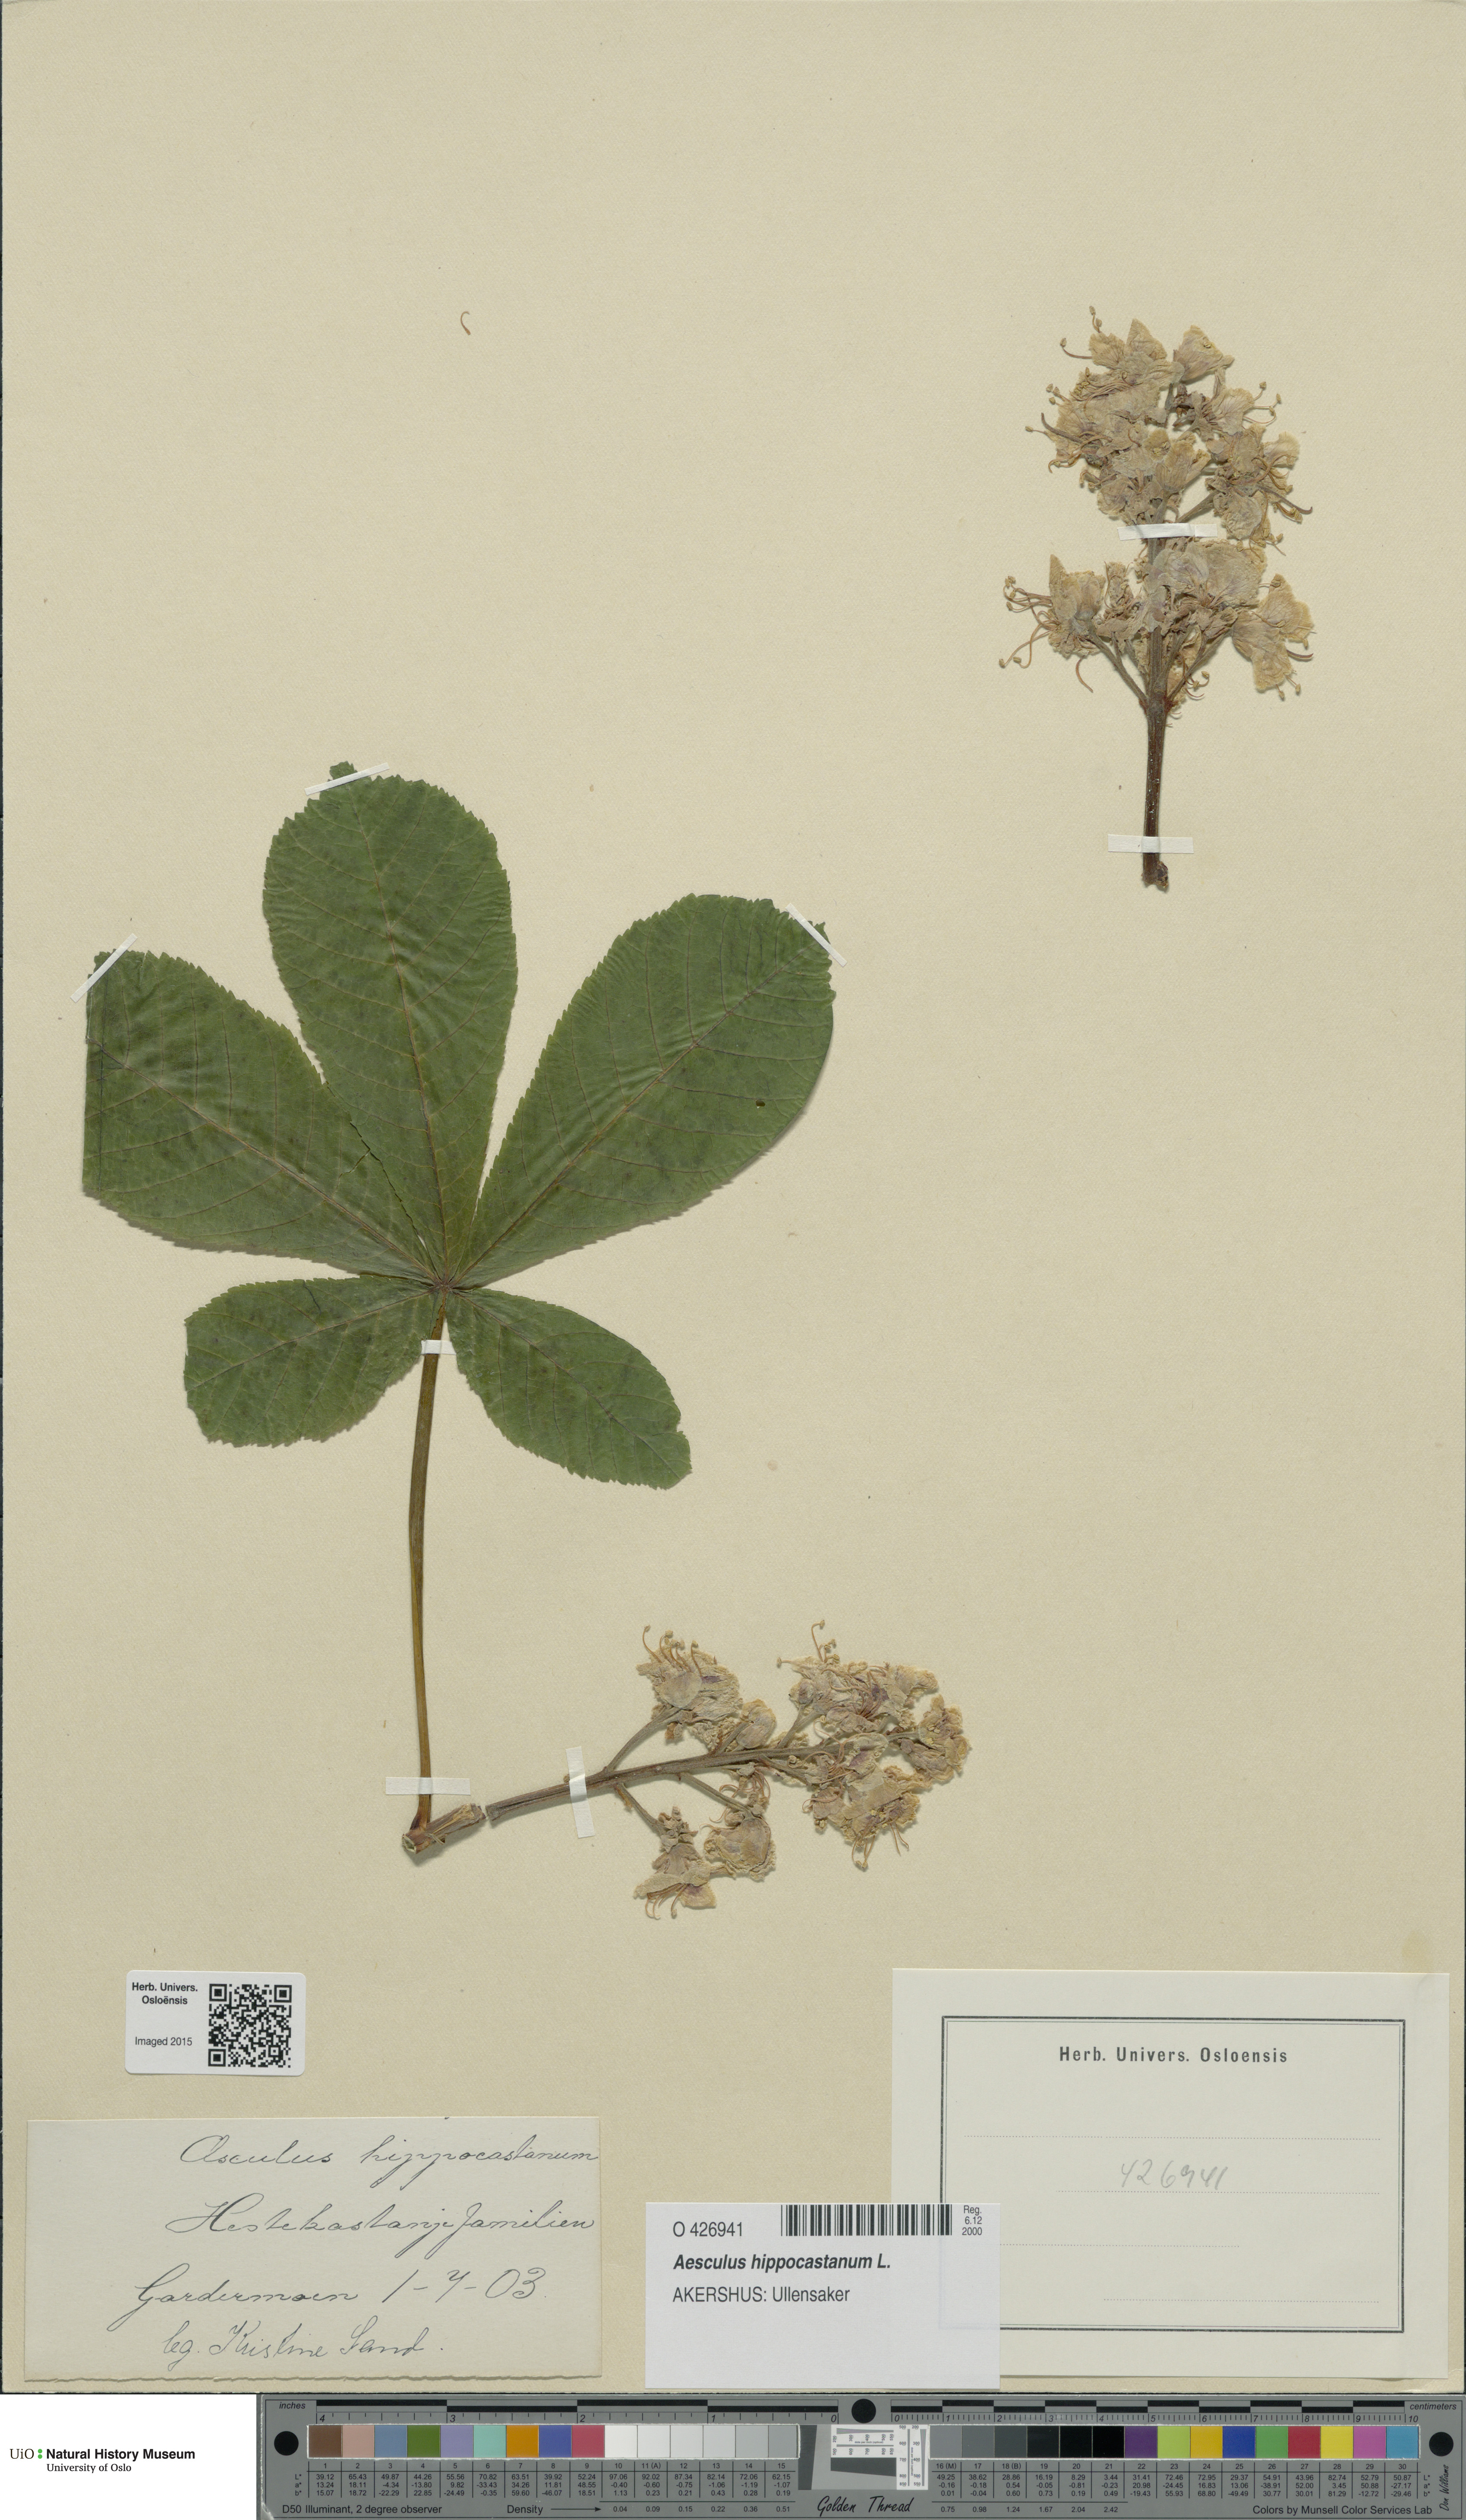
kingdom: Plantae
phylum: Tracheophyta
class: Magnoliopsida
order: Sapindales
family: Sapindaceae
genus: Aesculus
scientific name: Aesculus hippocastanum
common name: Horse-chestnut
